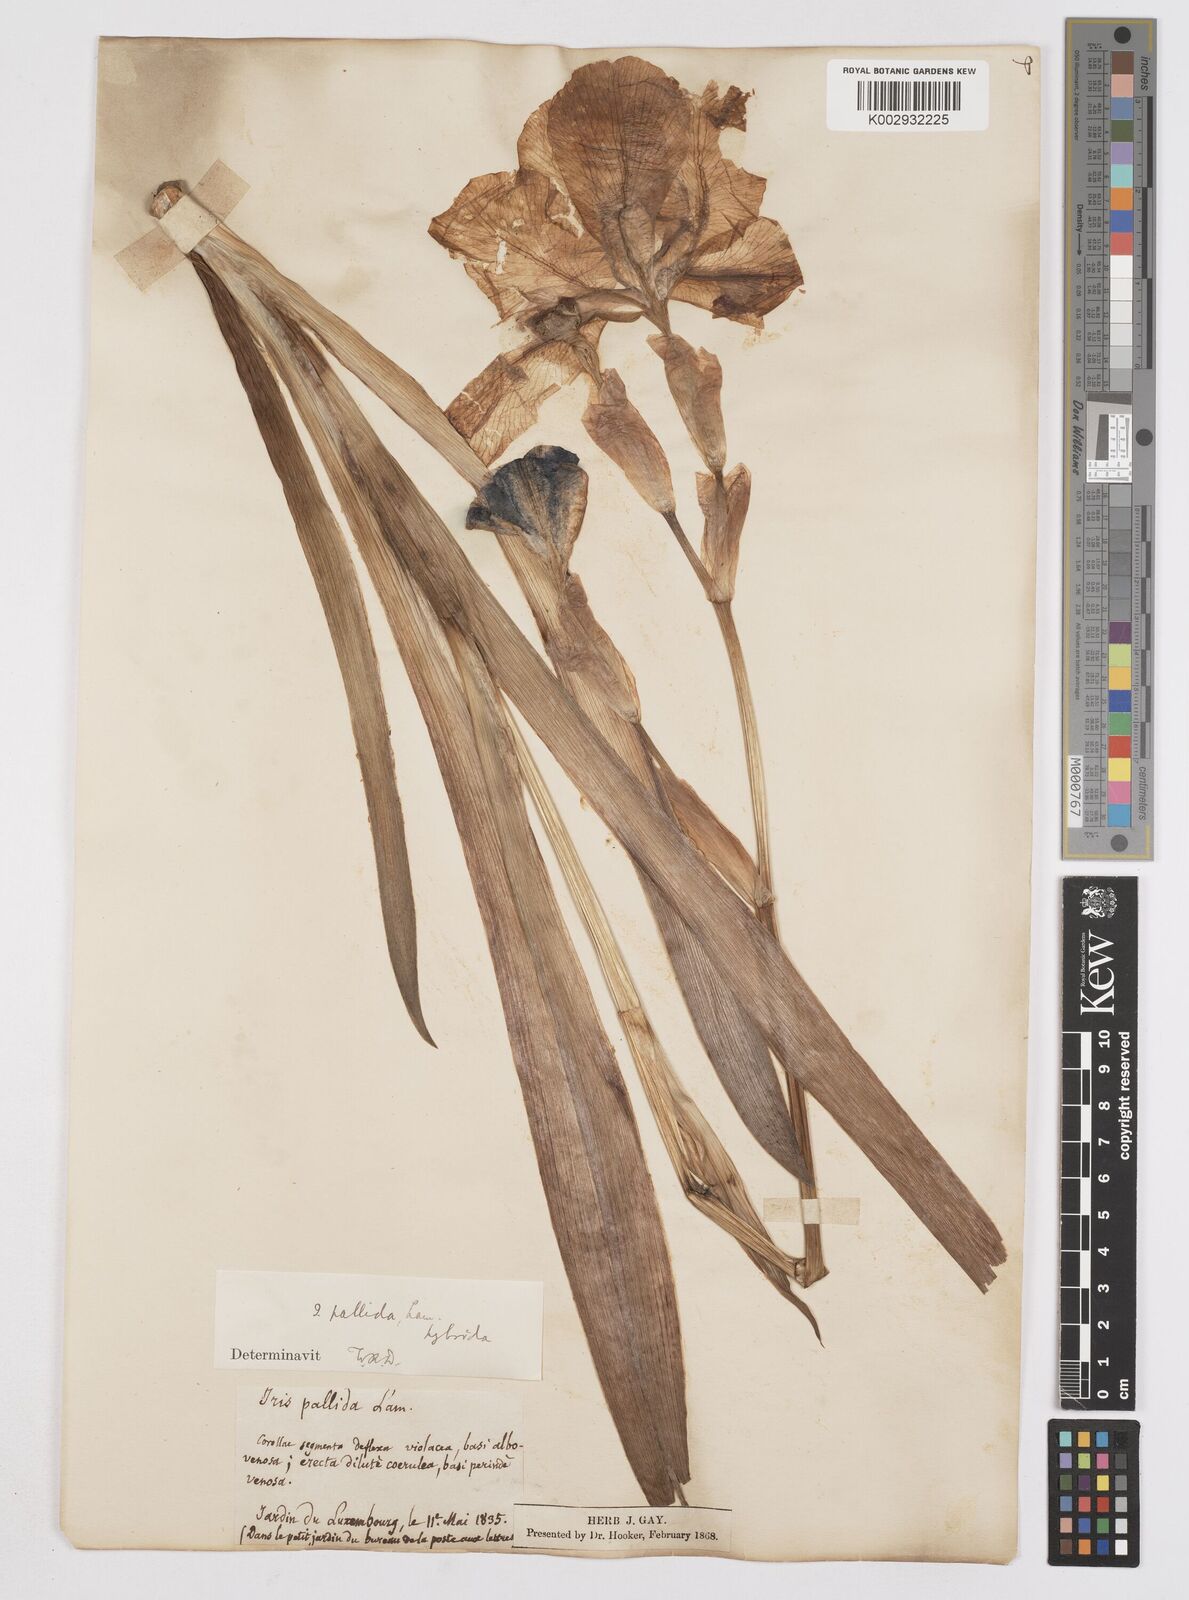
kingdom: Plantae
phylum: Tracheophyta
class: Liliopsida
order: Asparagales
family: Iridaceae
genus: Iris
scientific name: Iris pallida
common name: Sweet iris
